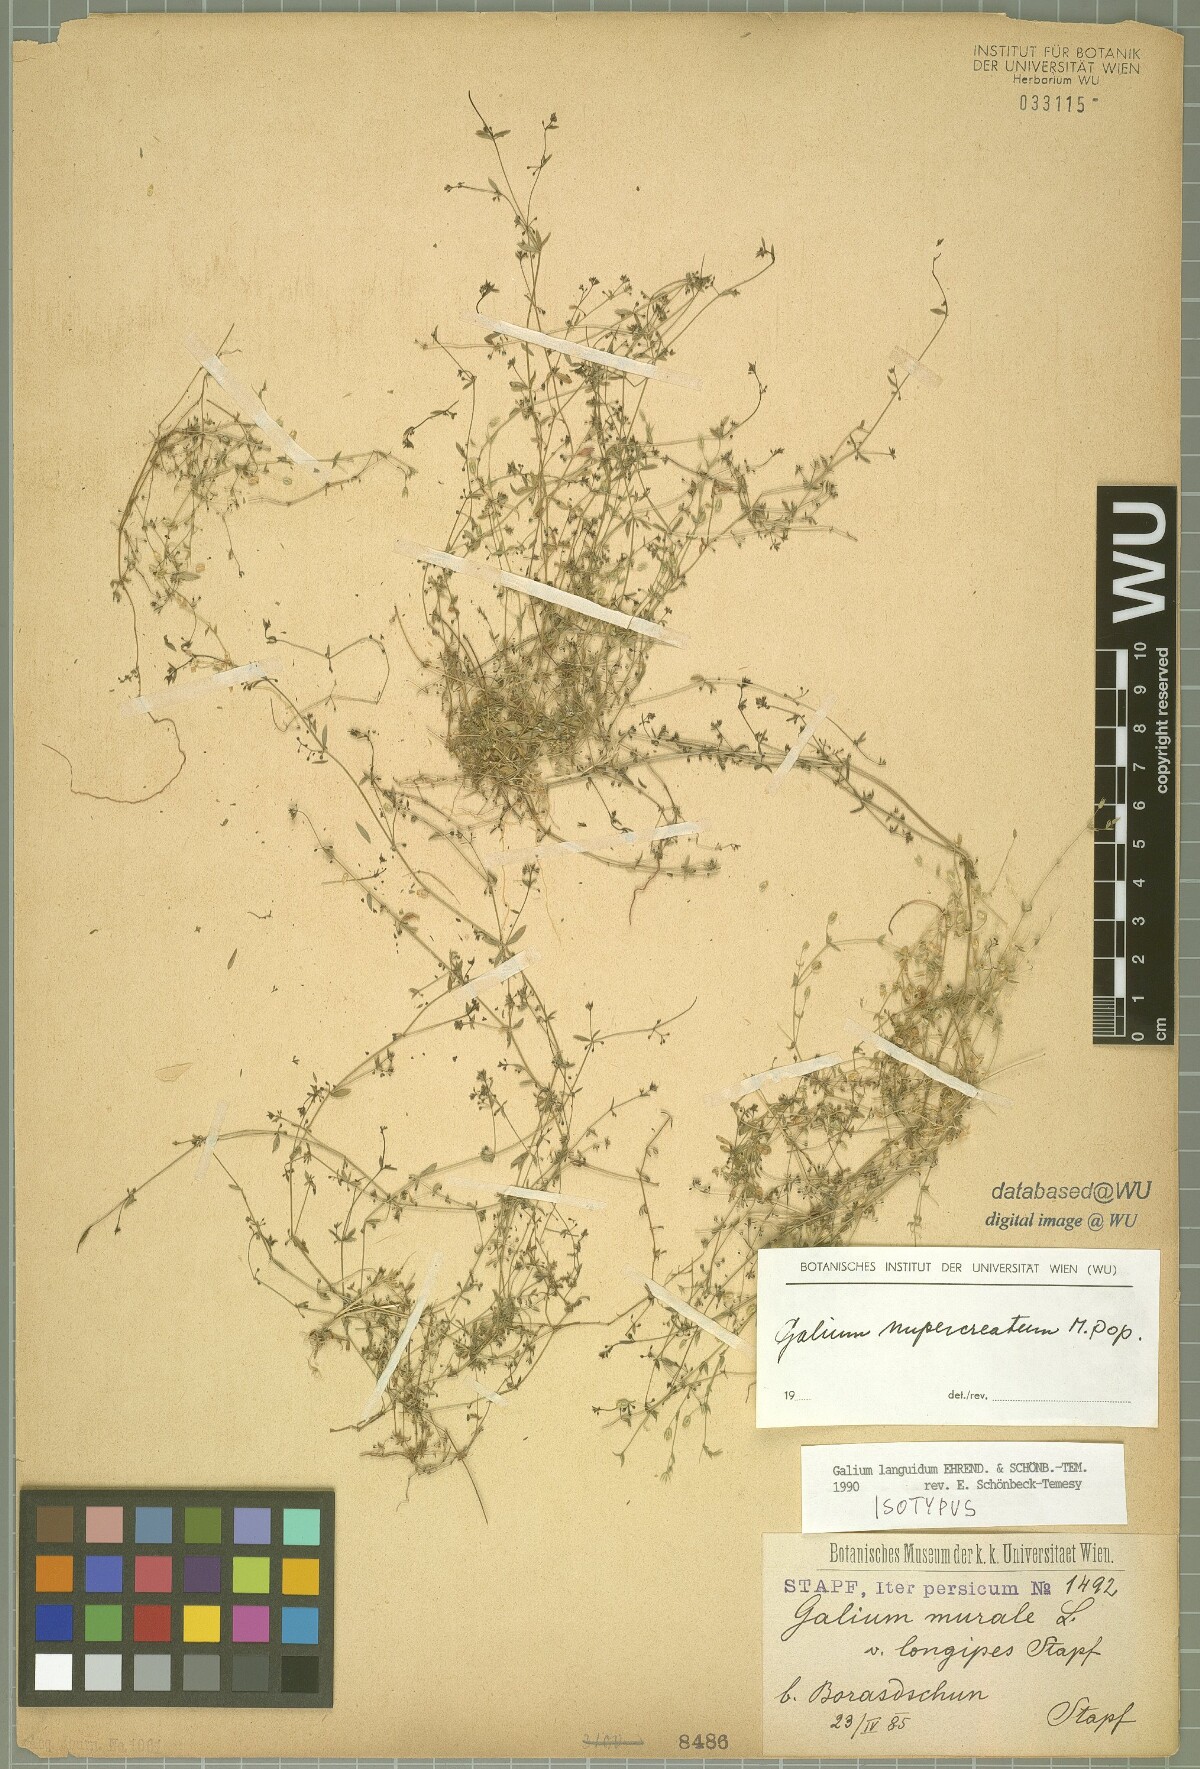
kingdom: Plantae
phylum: Tracheophyta
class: Magnoliopsida
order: Gentianales
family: Rubiaceae
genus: Galium
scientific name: Galium nupercreatum
